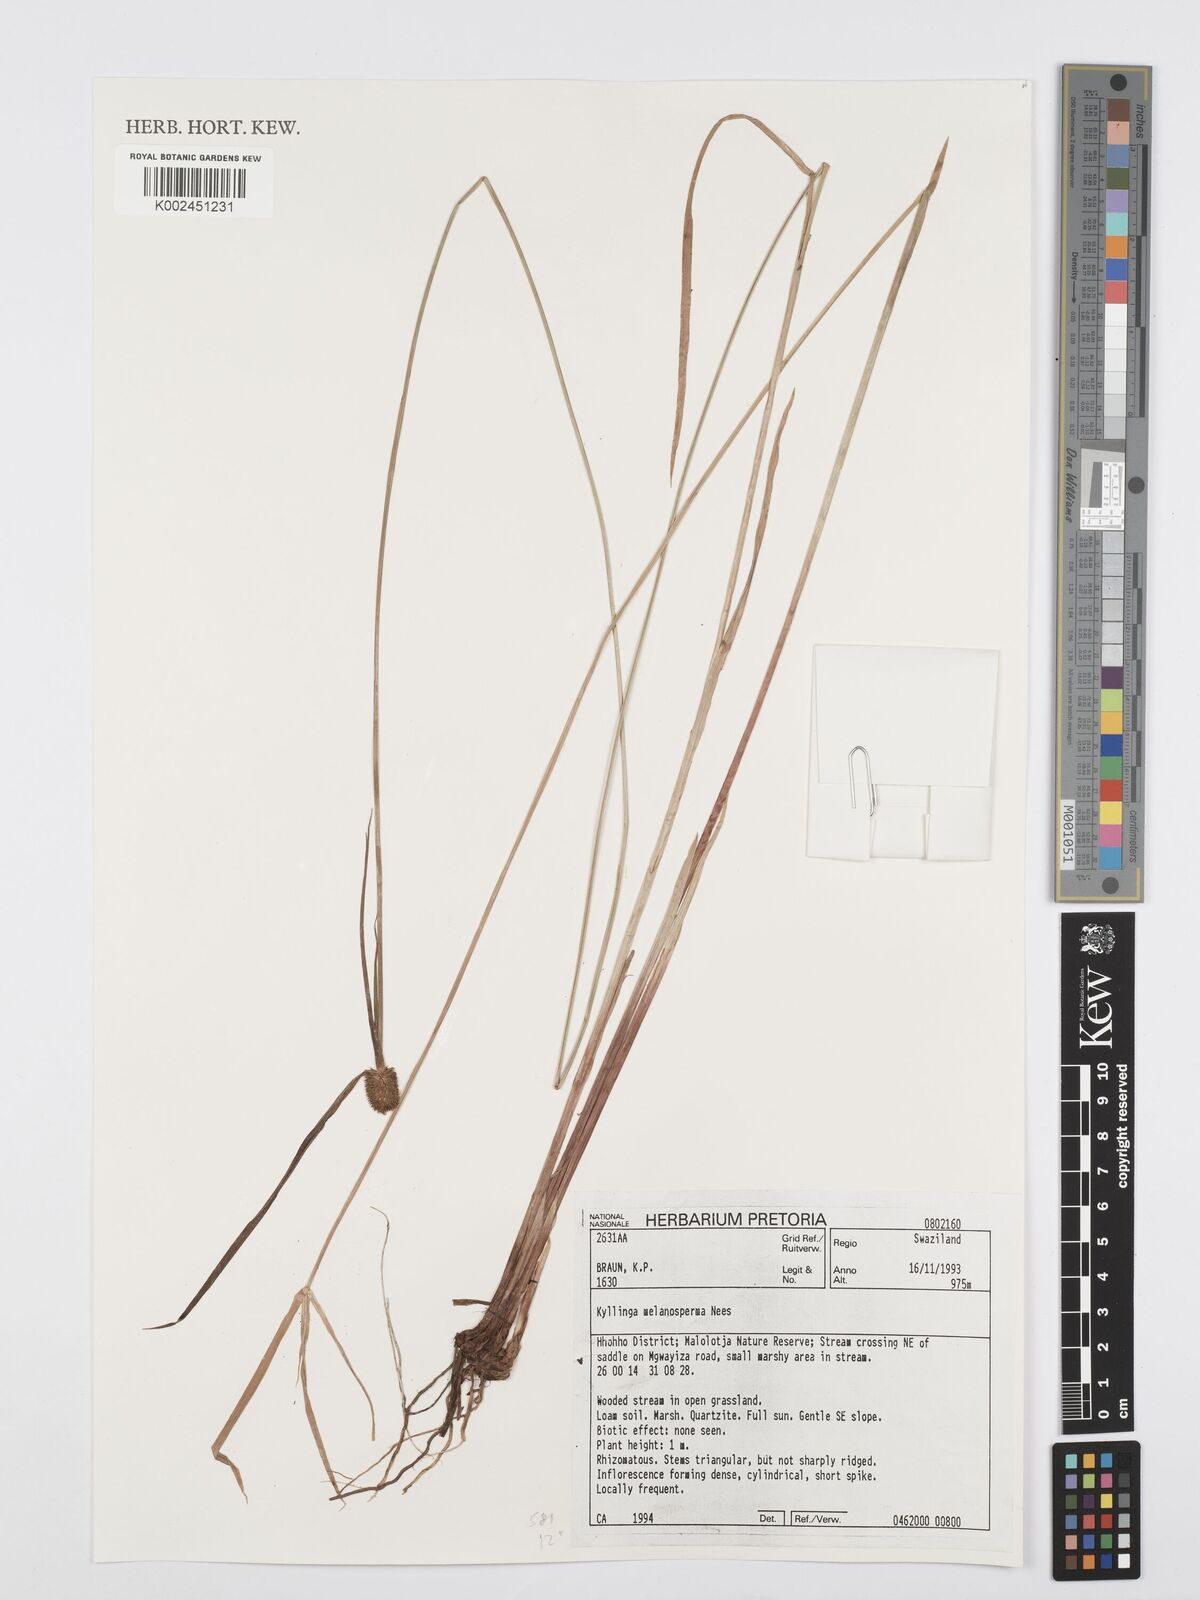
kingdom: Plantae
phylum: Tracheophyta
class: Liliopsida
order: Poales
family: Cyperaceae
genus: Cyperus
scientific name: Cyperus melanospermus
